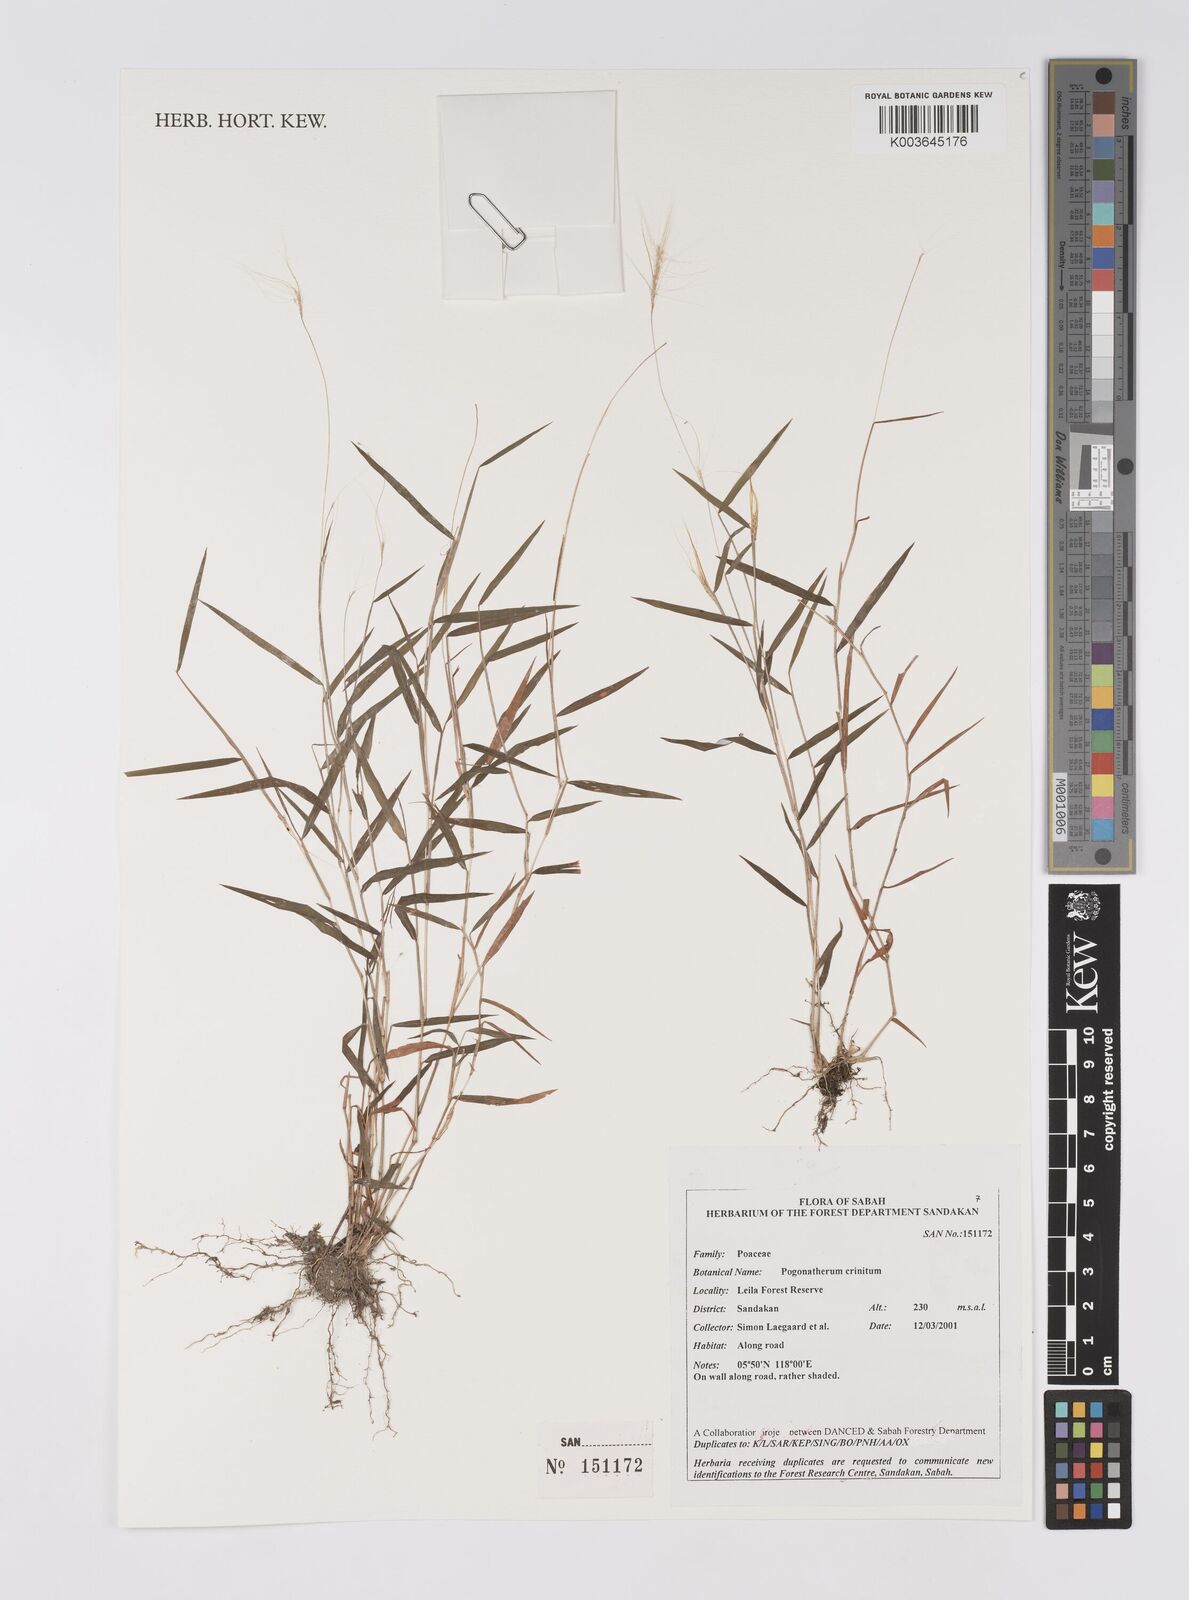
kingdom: Plantae
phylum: Tracheophyta
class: Liliopsida
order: Poales
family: Poaceae
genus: Pogonatherum
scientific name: Pogonatherum crinitum
